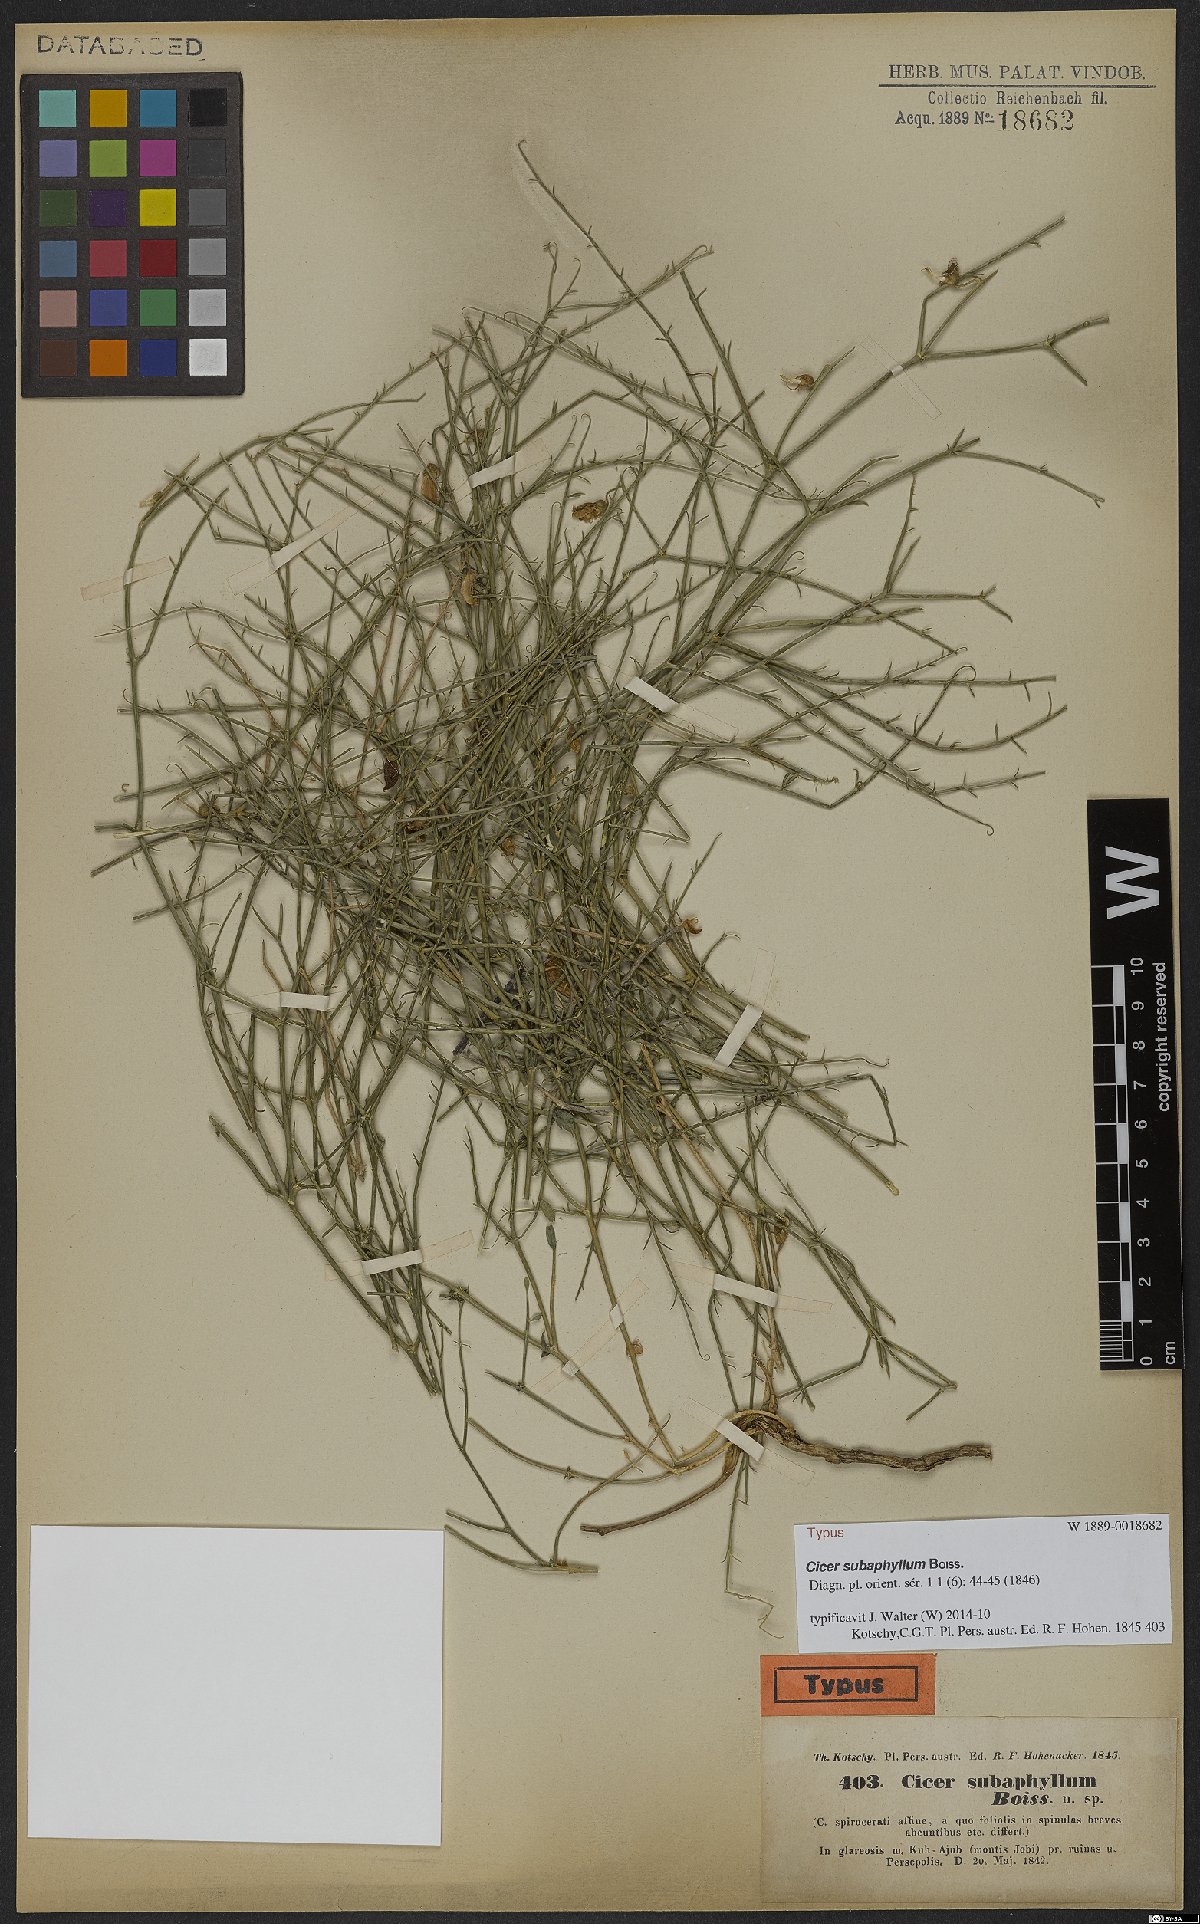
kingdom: Plantae
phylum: Tracheophyta
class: Magnoliopsida
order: Fabales
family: Fabaceae
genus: Cicer
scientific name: Cicer subaphyllum
